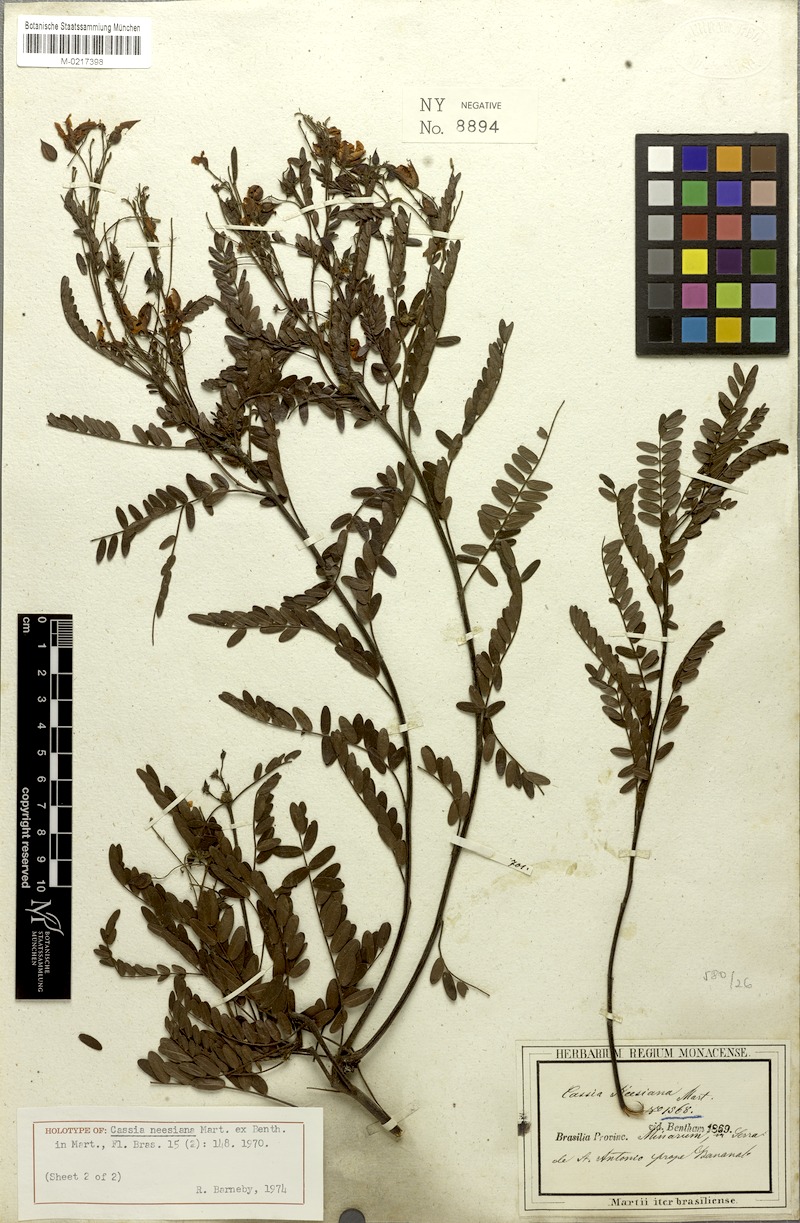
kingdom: Plantae
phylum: Tracheophyta
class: Magnoliopsida
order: Fabales
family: Fabaceae
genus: Chamaecrista
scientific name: Chamaecrista neesiana
